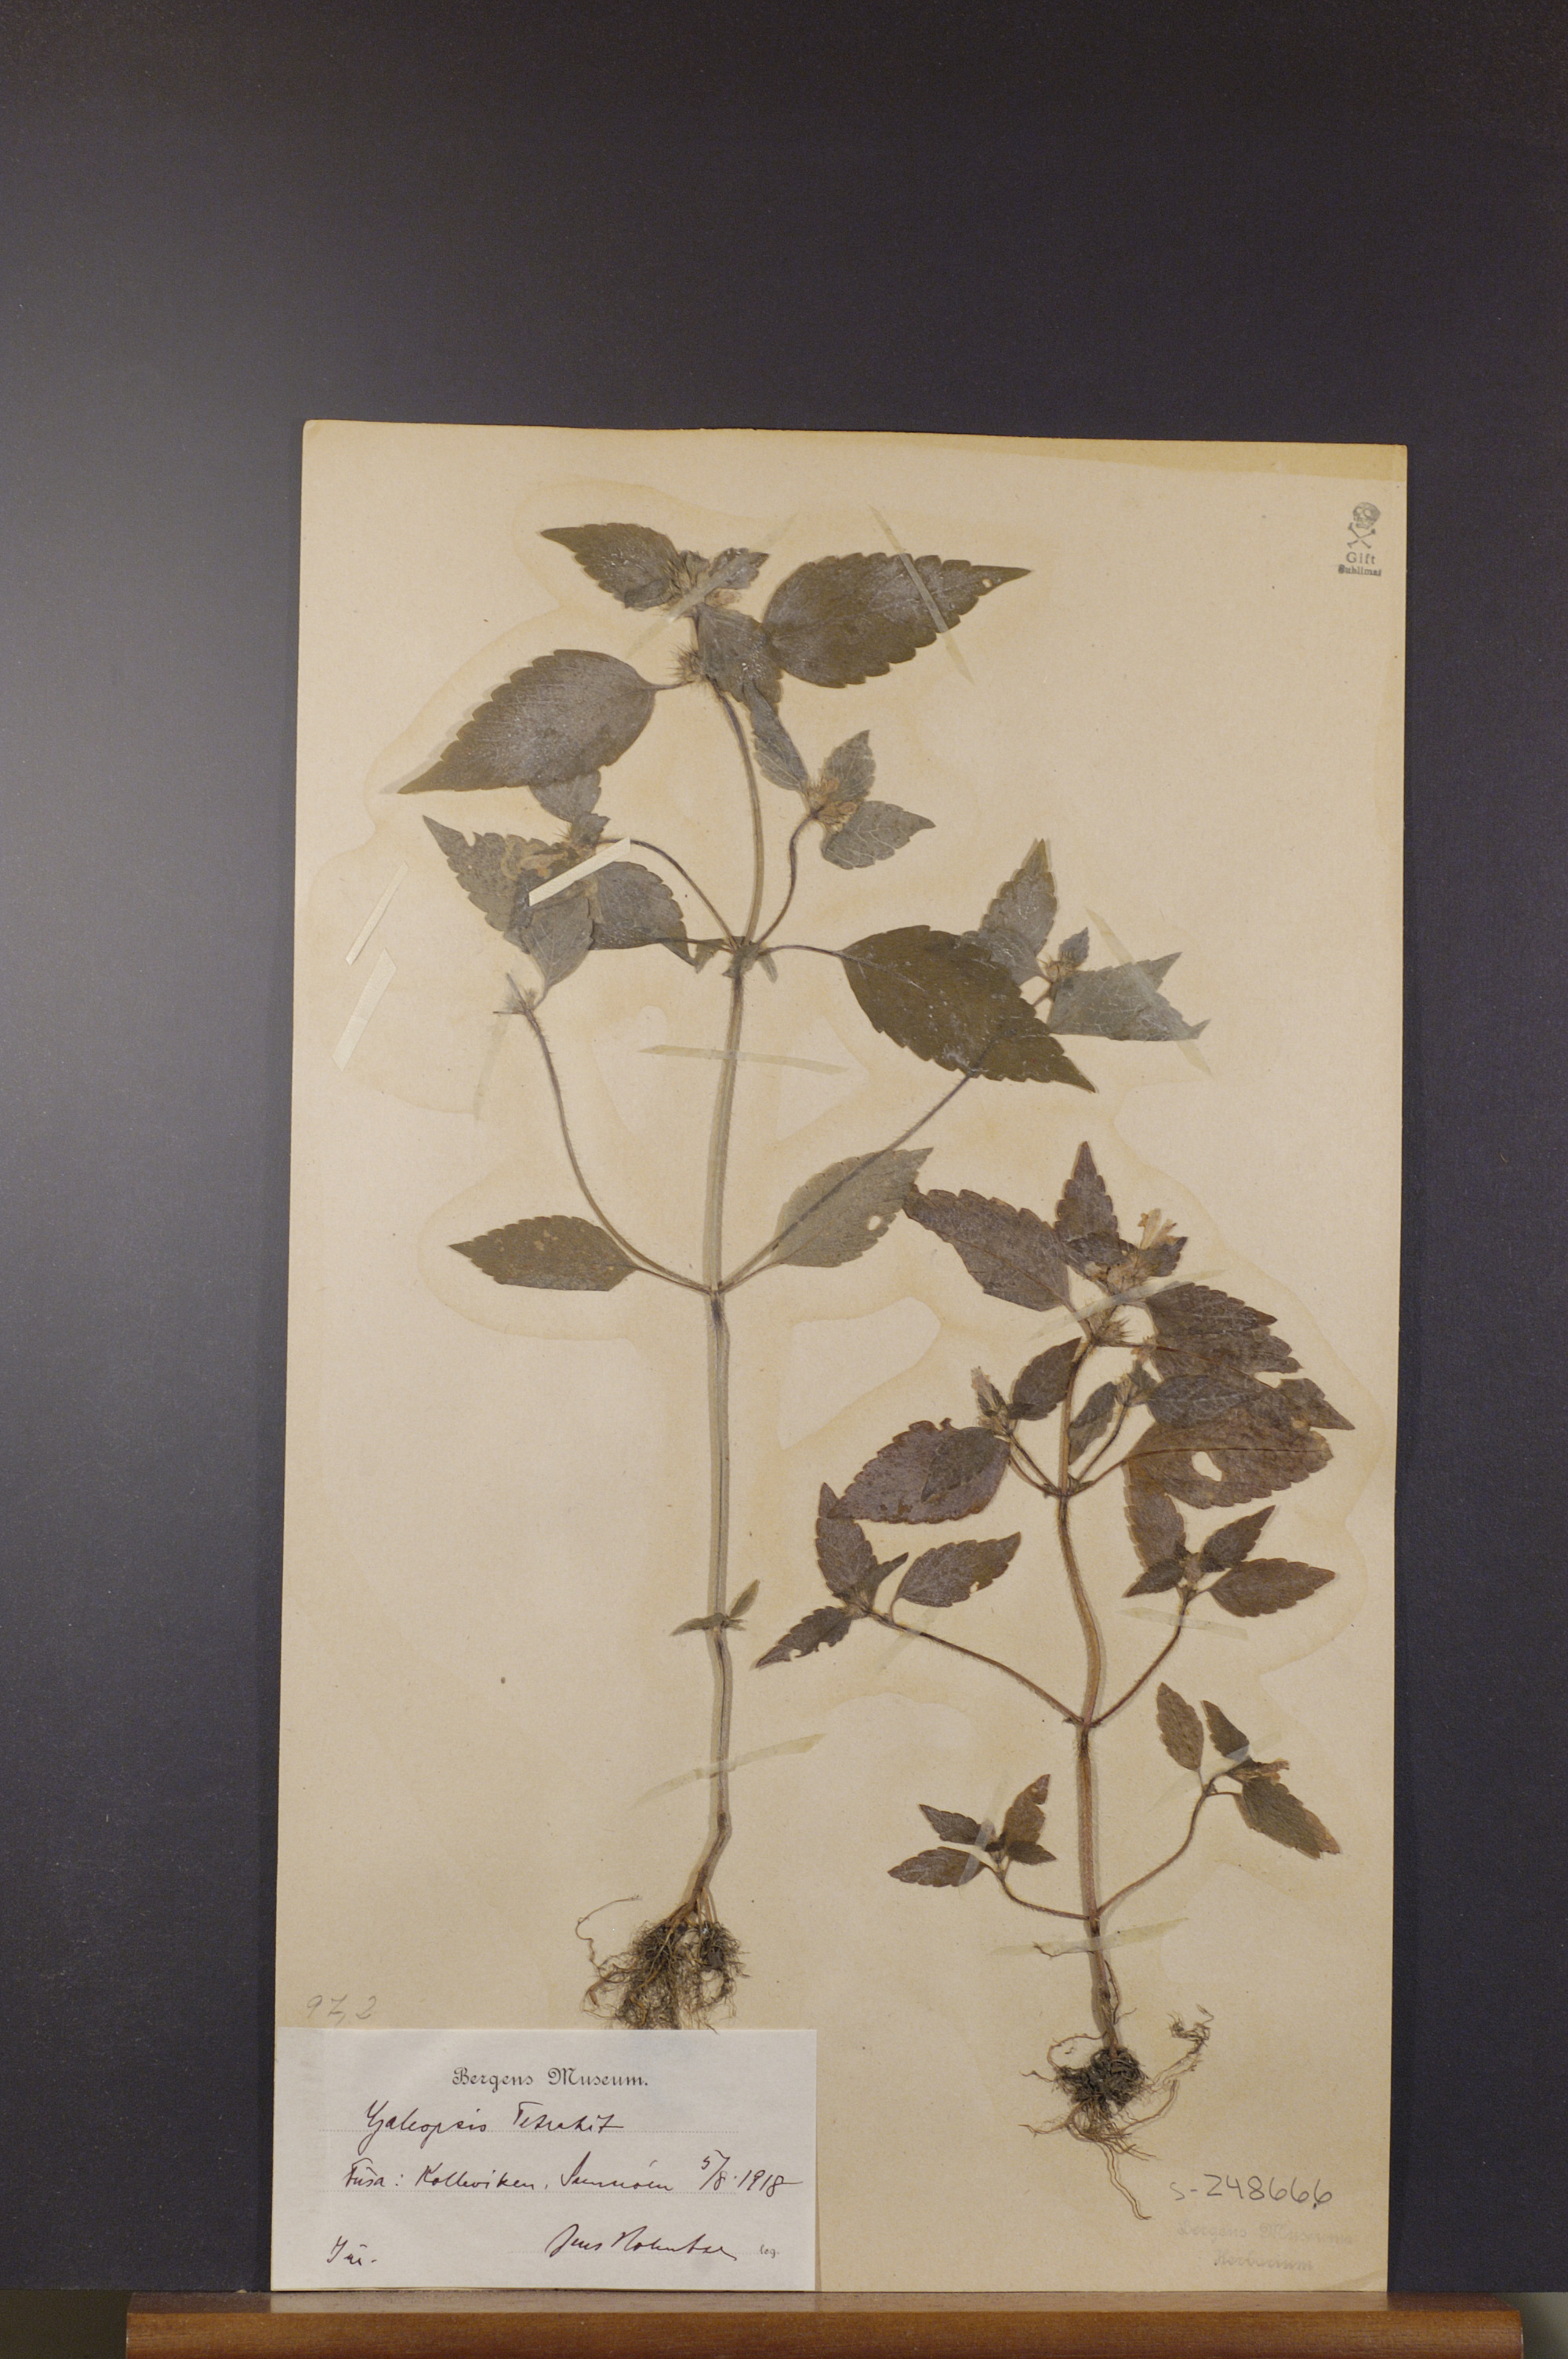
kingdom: Plantae
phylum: Tracheophyta
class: Magnoliopsida
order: Lamiales
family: Lamiaceae
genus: Galeopsis
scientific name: Galeopsis tetrahit
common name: Common hemp-nettle
